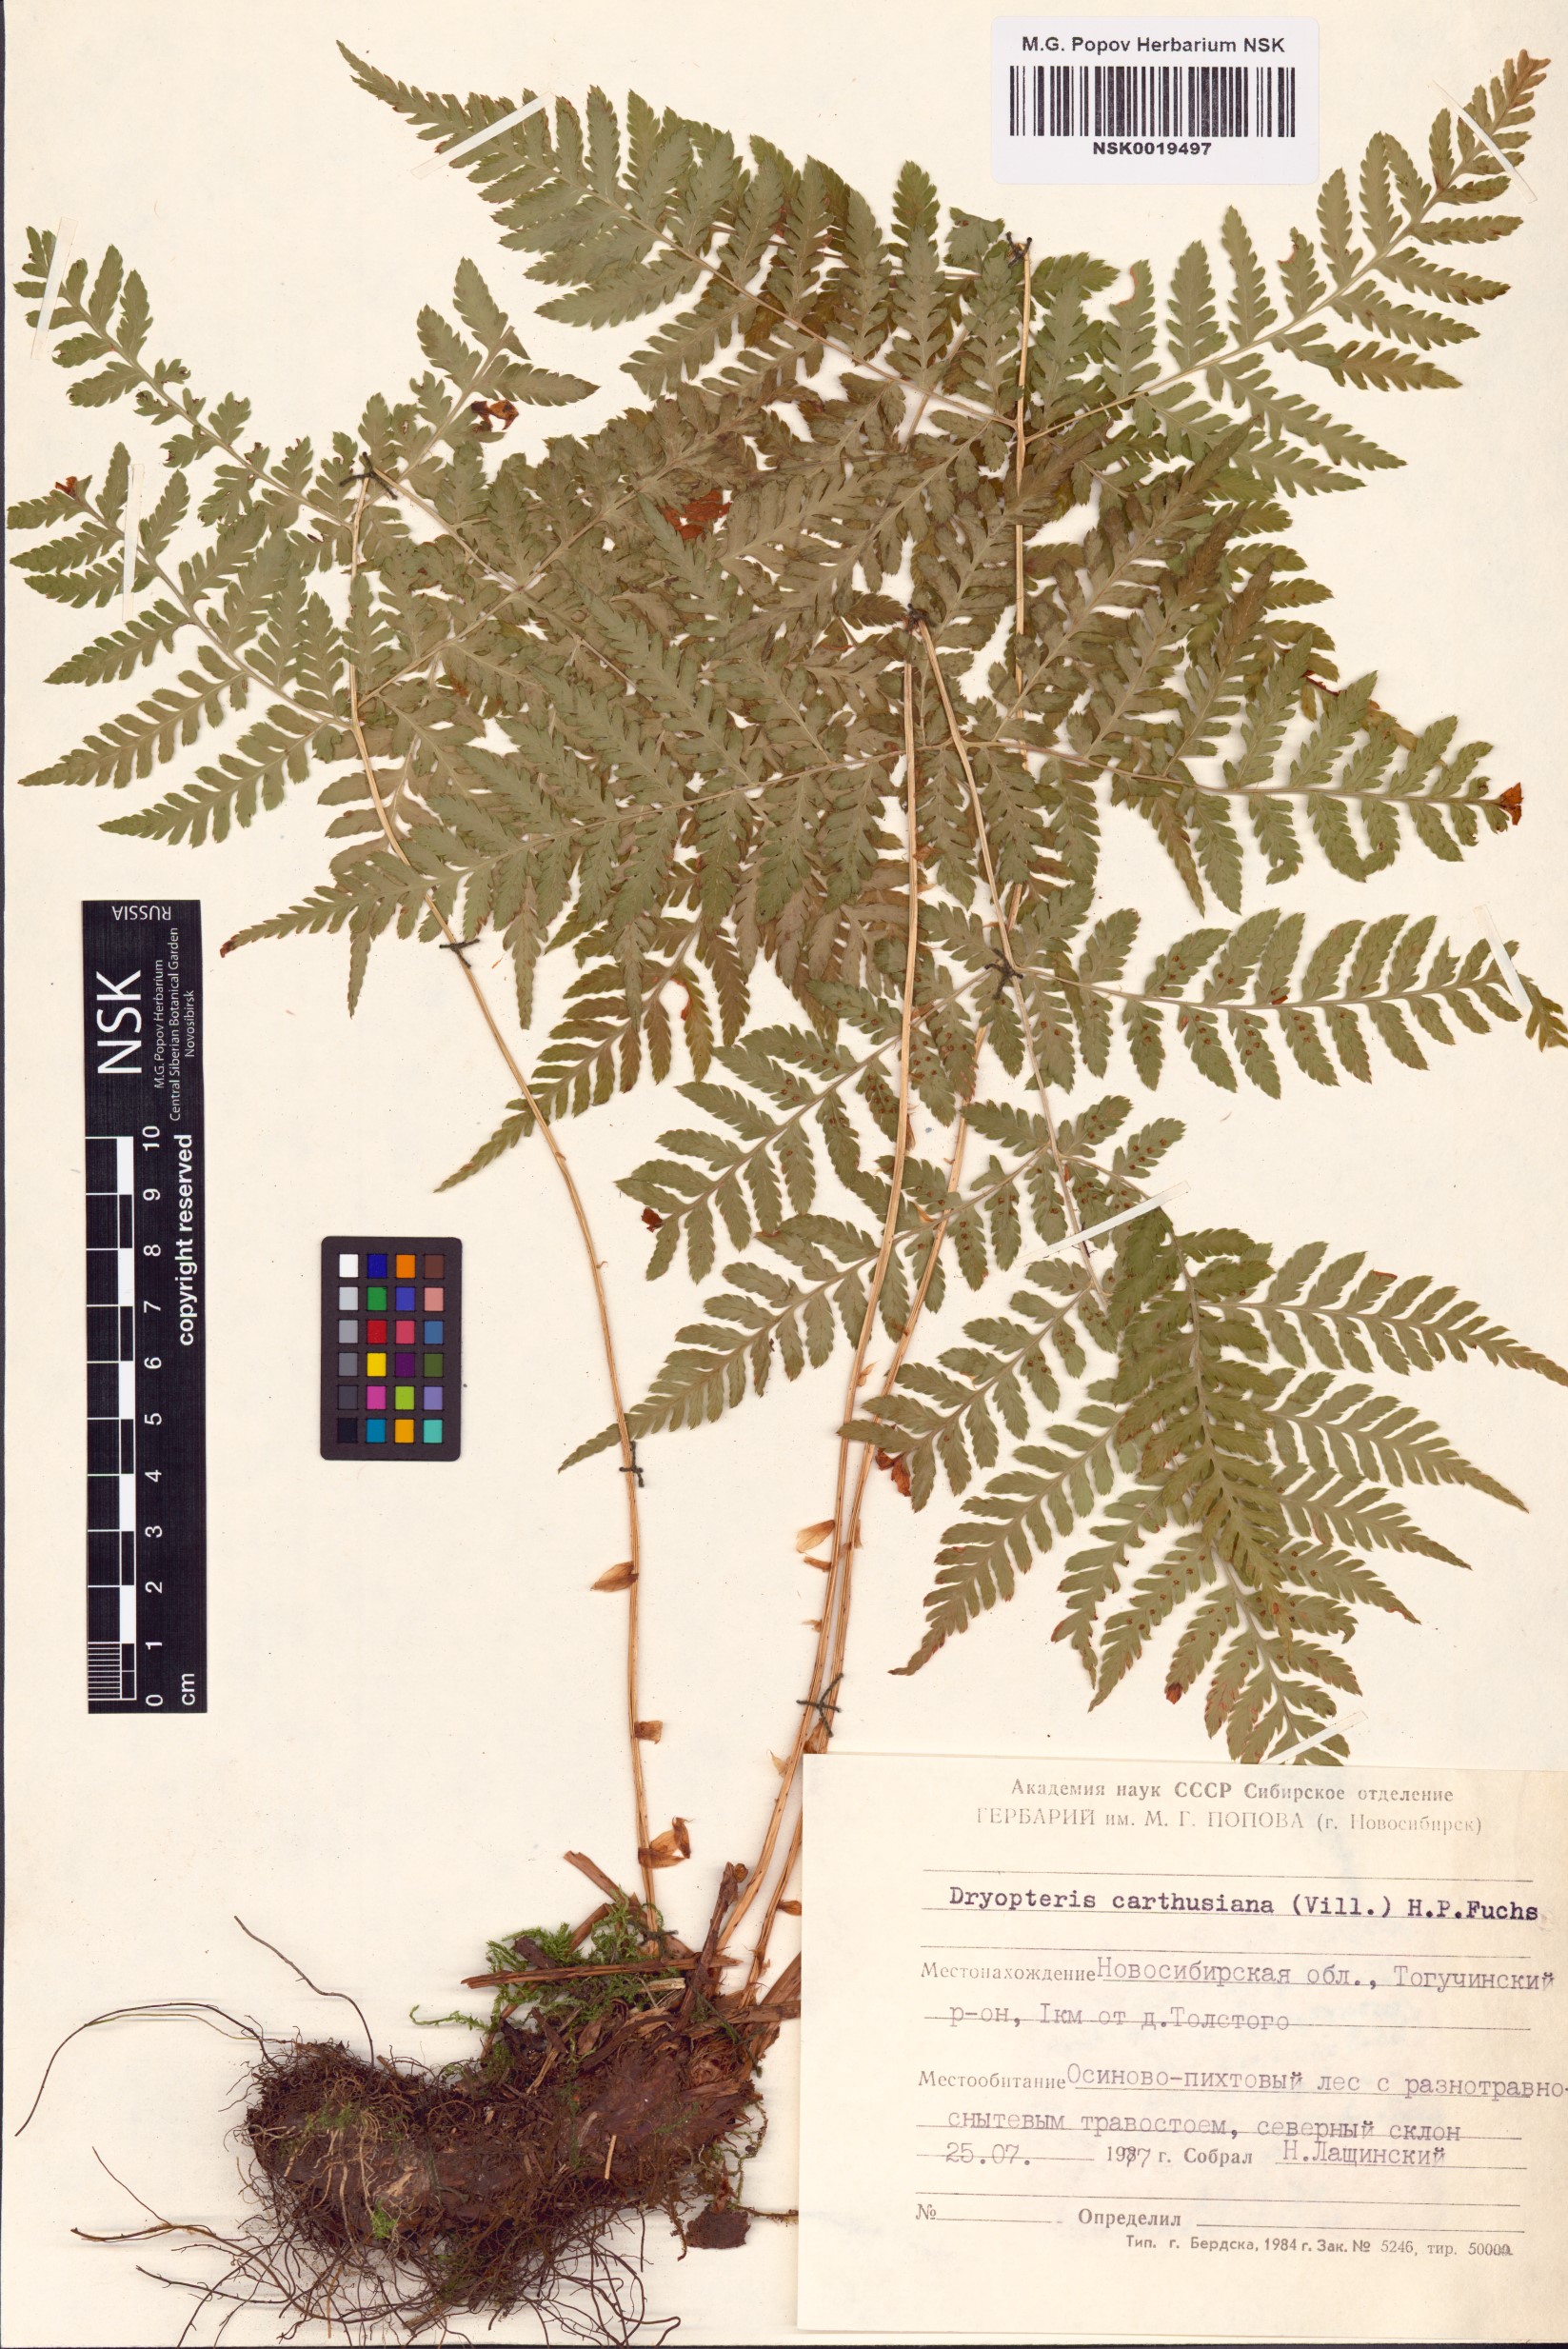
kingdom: Plantae
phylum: Tracheophyta
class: Polypodiopsida
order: Polypodiales
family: Dryopteridaceae
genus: Dryopteris
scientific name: Dryopteris carthusiana
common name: Narrow buckler-fern
